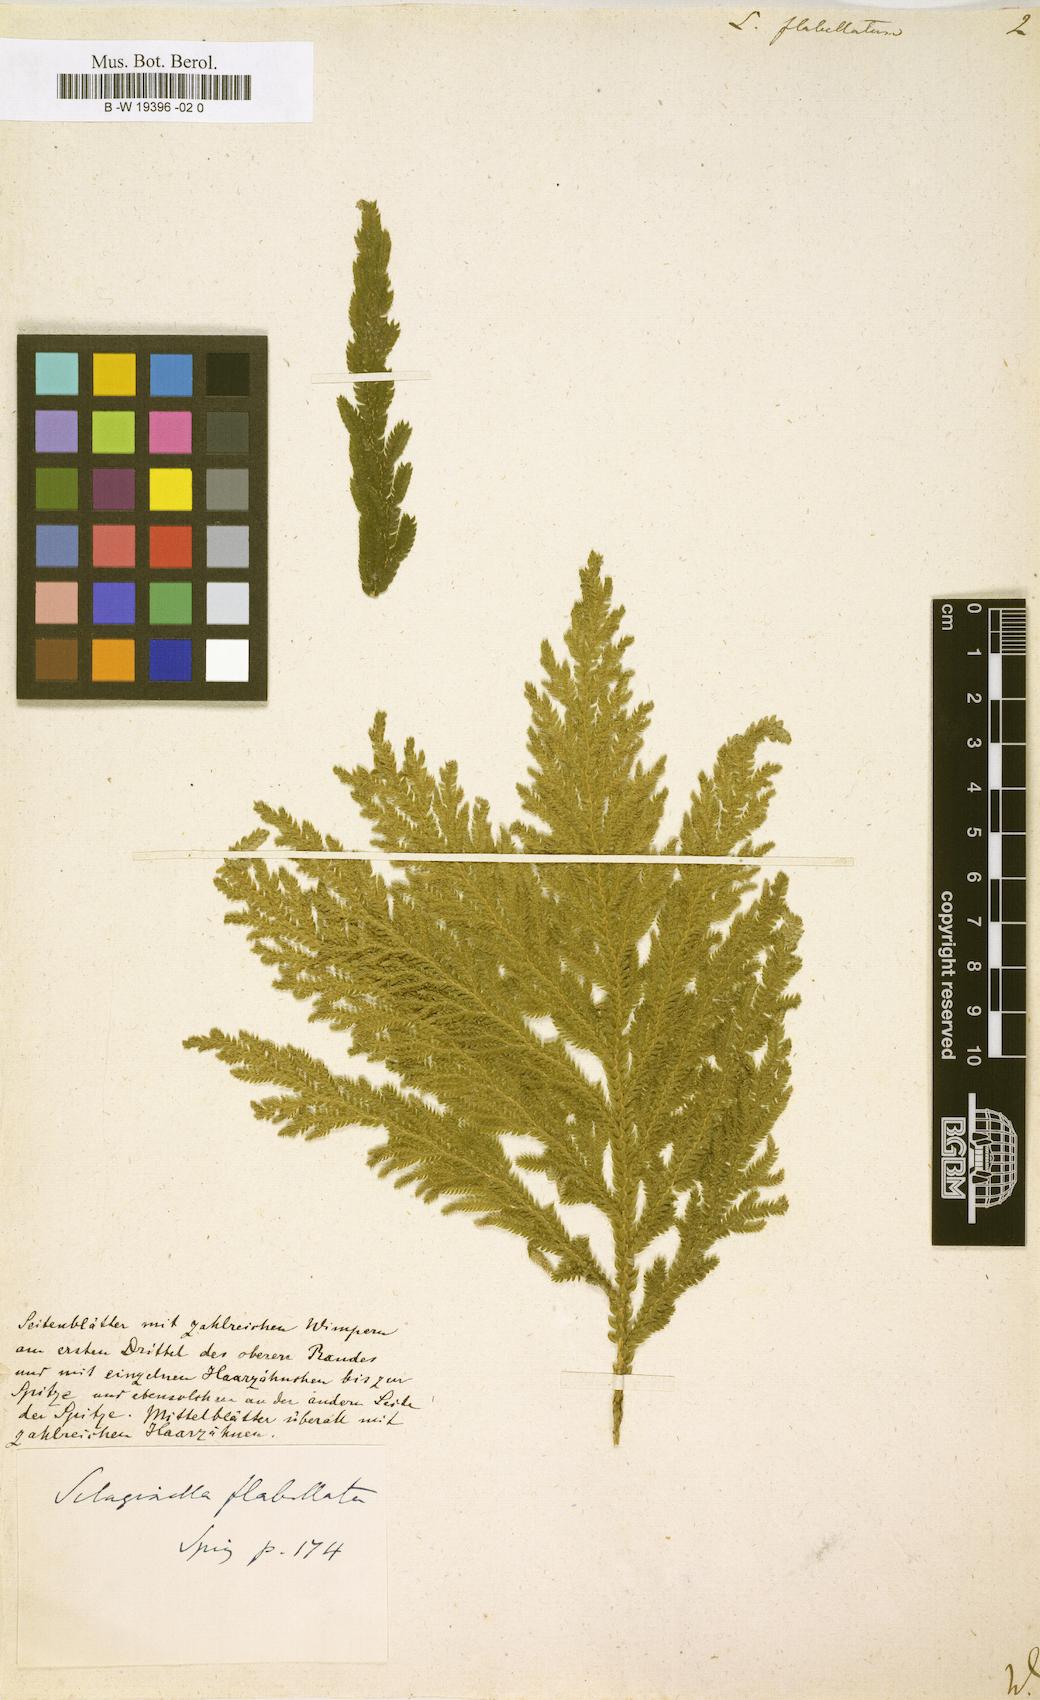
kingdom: Plantae
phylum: Tracheophyta
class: Lycopodiopsida
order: Selaginellales
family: Selaginellaceae
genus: Selaginella
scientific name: Selaginella
